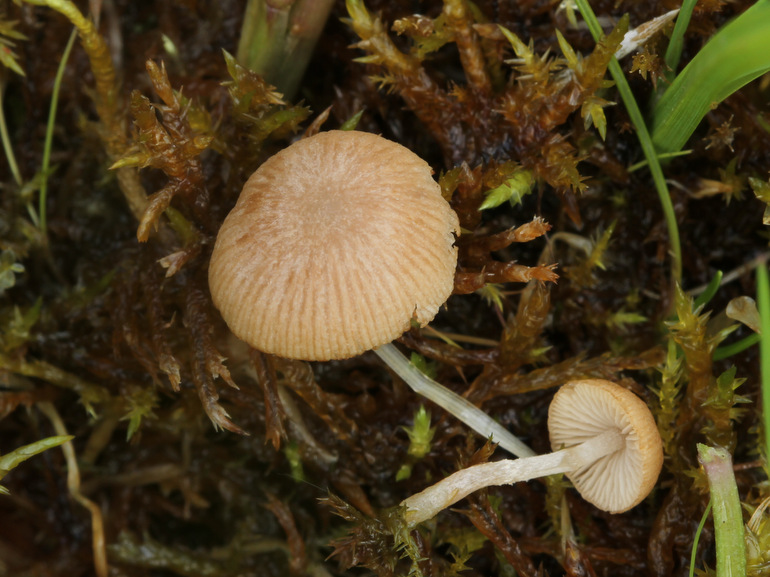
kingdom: Fungi
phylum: Basidiomycota
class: Agaricomycetes
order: Agaricales
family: Psathyrellaceae
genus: Candolleomyces
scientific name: Candolleomyces typhae
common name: dunhammer-mørkhat
